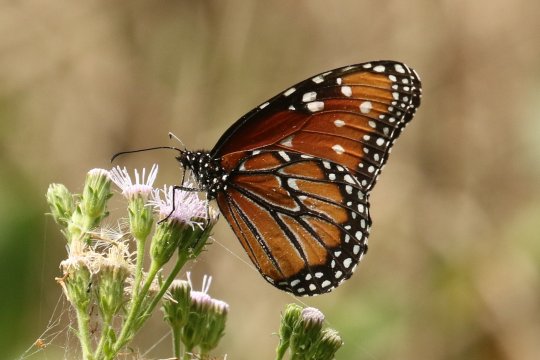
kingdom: Animalia
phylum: Arthropoda
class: Insecta
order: Lepidoptera
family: Nymphalidae
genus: Danaus
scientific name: Danaus gilippus
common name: Queen
